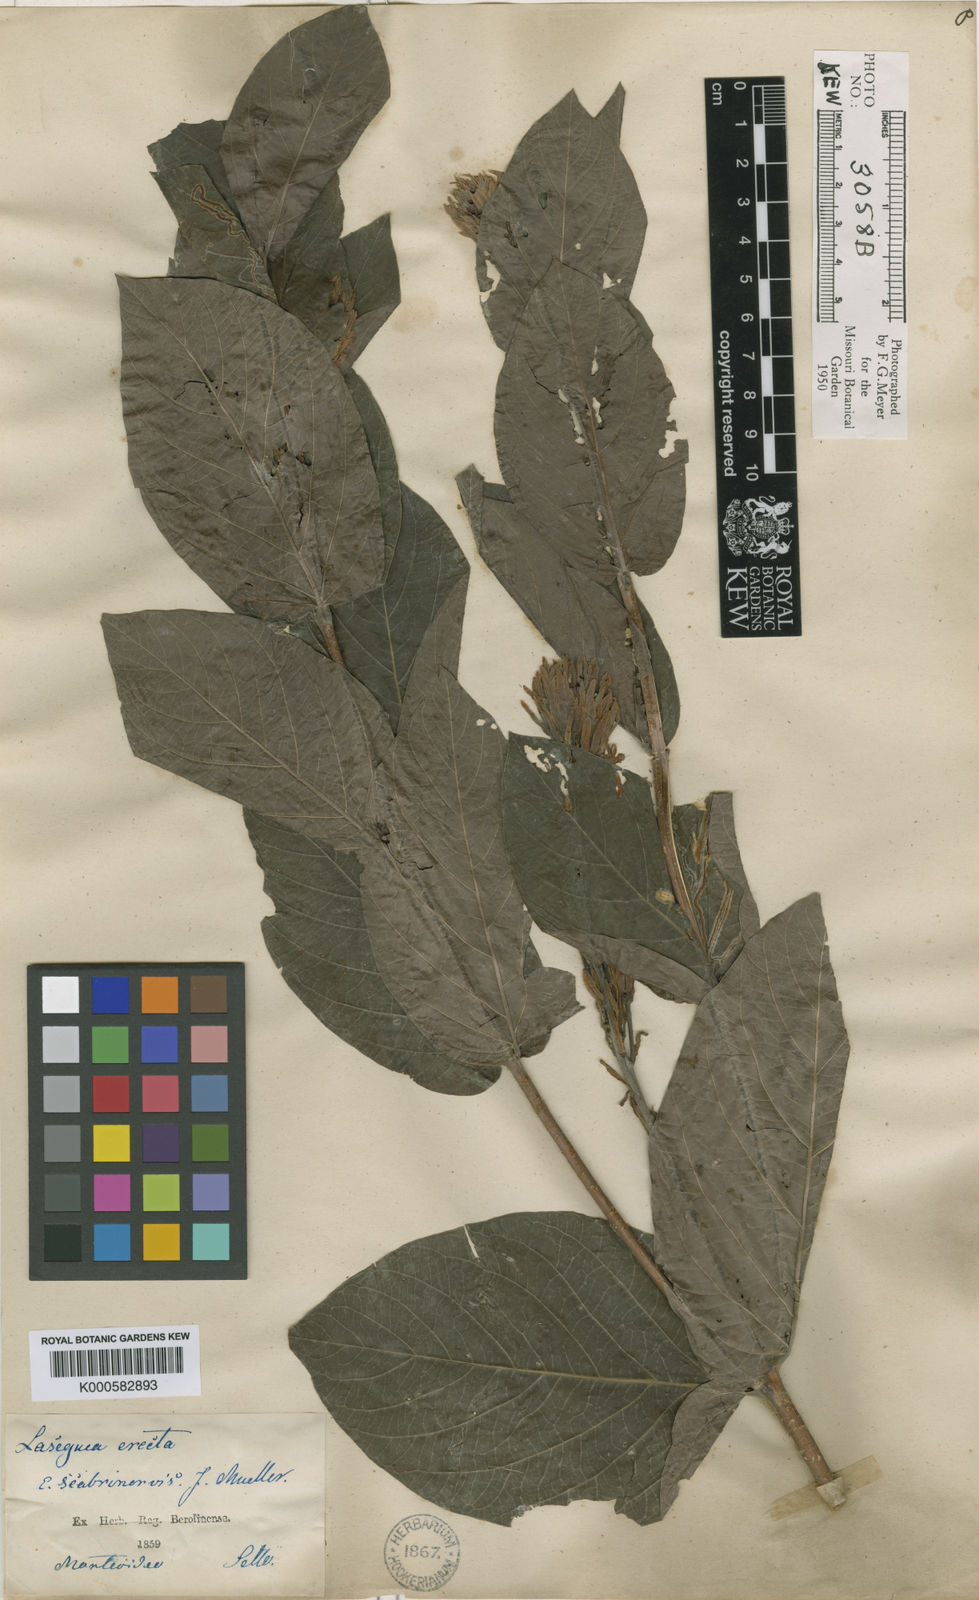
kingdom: Plantae
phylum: Tracheophyta
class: Magnoliopsida
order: Gentianales
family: Apocynaceae
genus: Mandevilla
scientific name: Mandevilla emarginata
